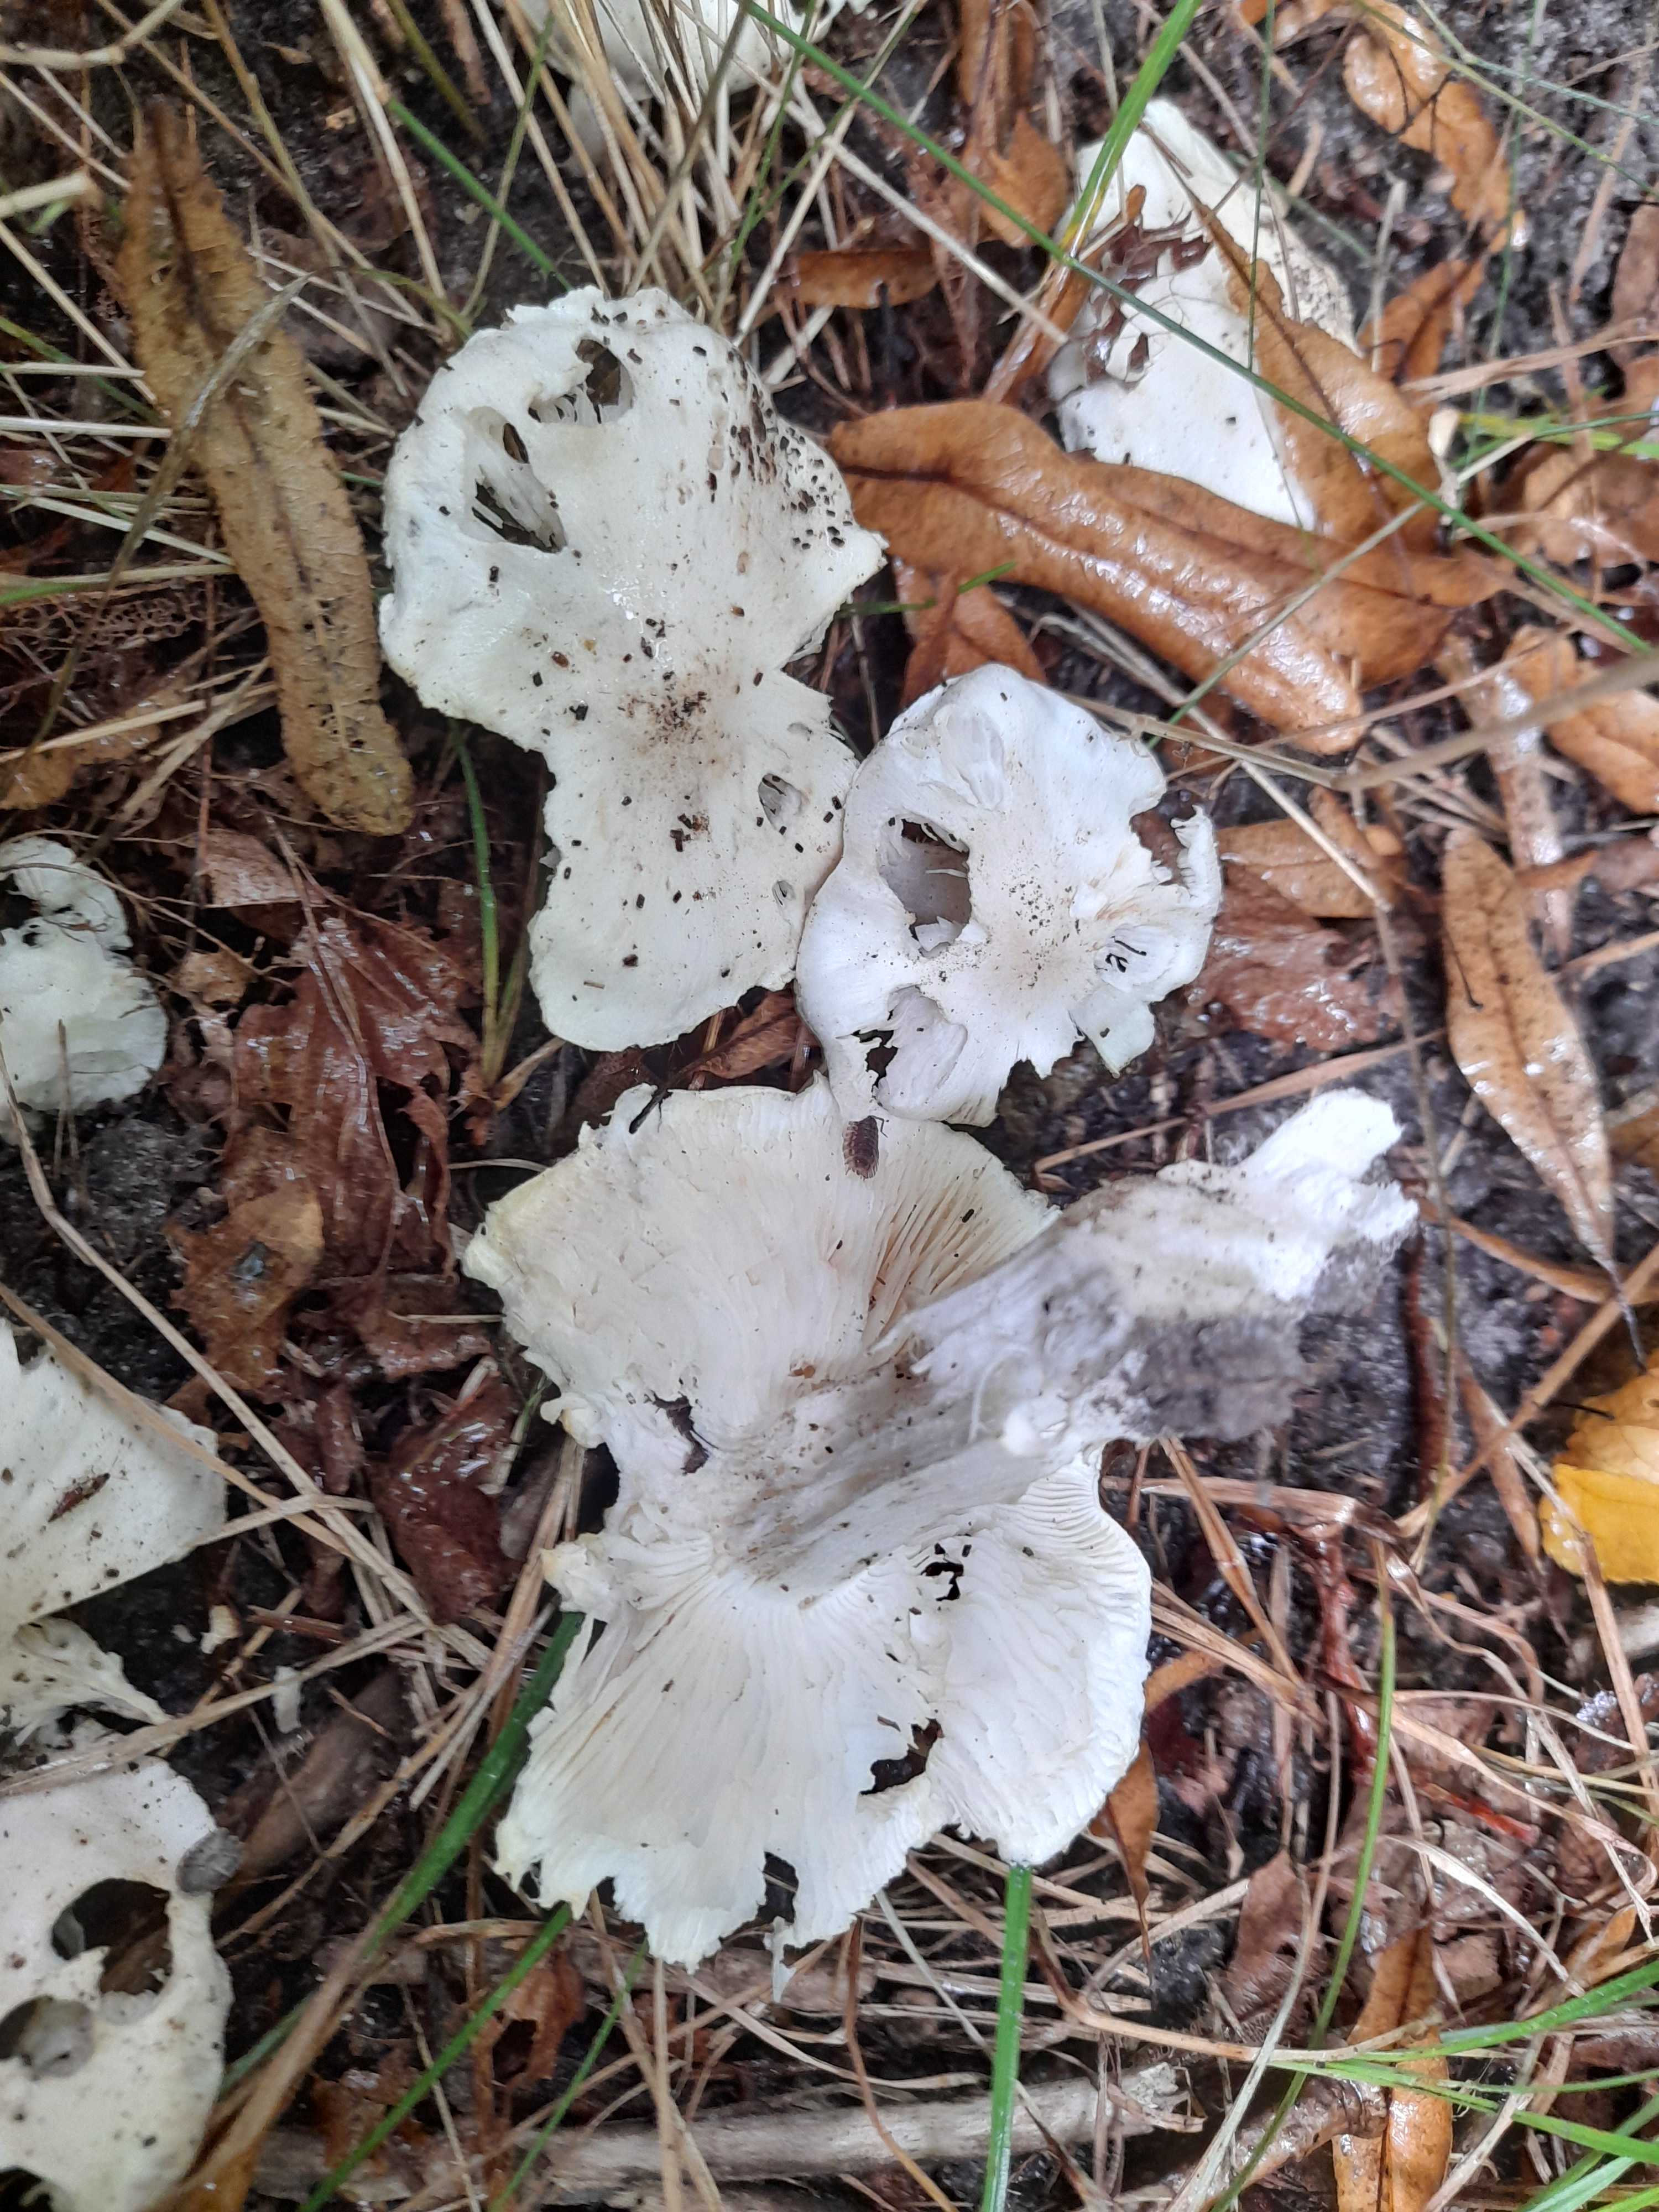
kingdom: Fungi
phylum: Basidiomycota
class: Agaricomycetes
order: Agaricales
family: Tricholomataceae
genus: Tricholoma
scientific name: Tricholoma lascivum
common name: stinkende ridderhat
